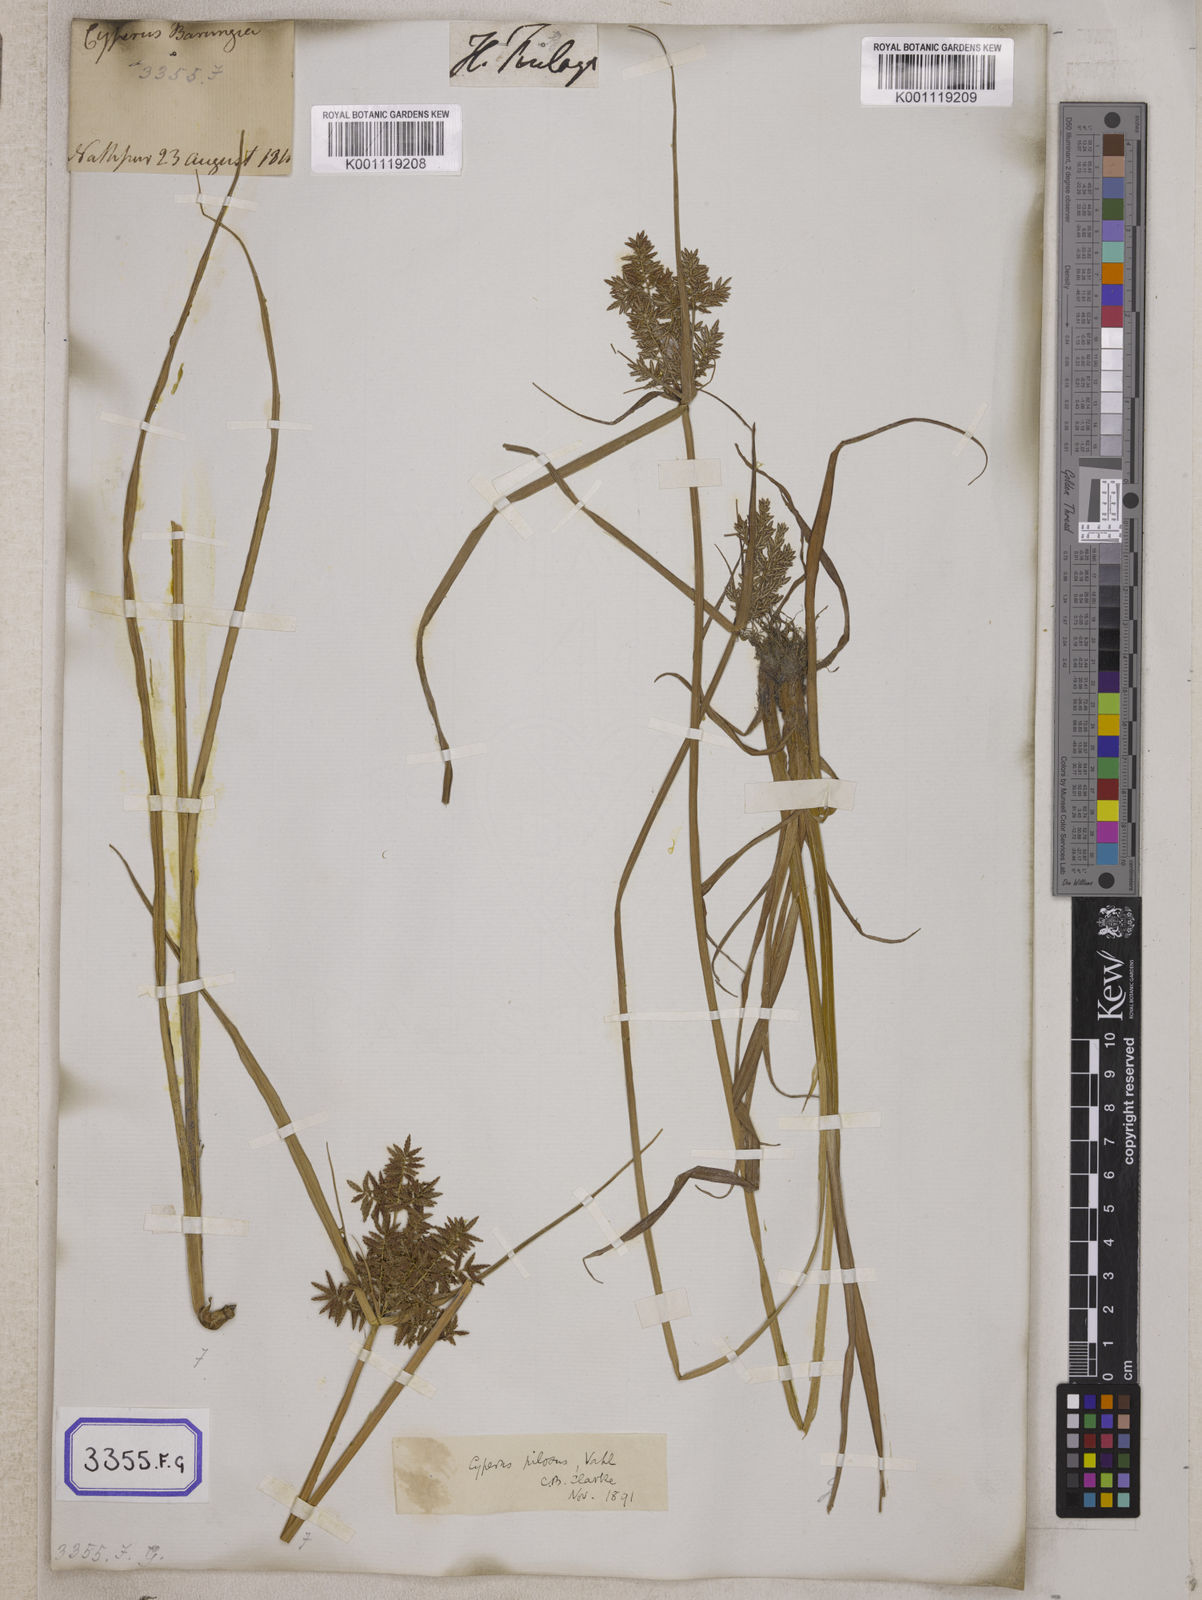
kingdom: Plantae
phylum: Tracheophyta
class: Liliopsida
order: Poales
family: Cyperaceae
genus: Cyperus
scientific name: Cyperus
